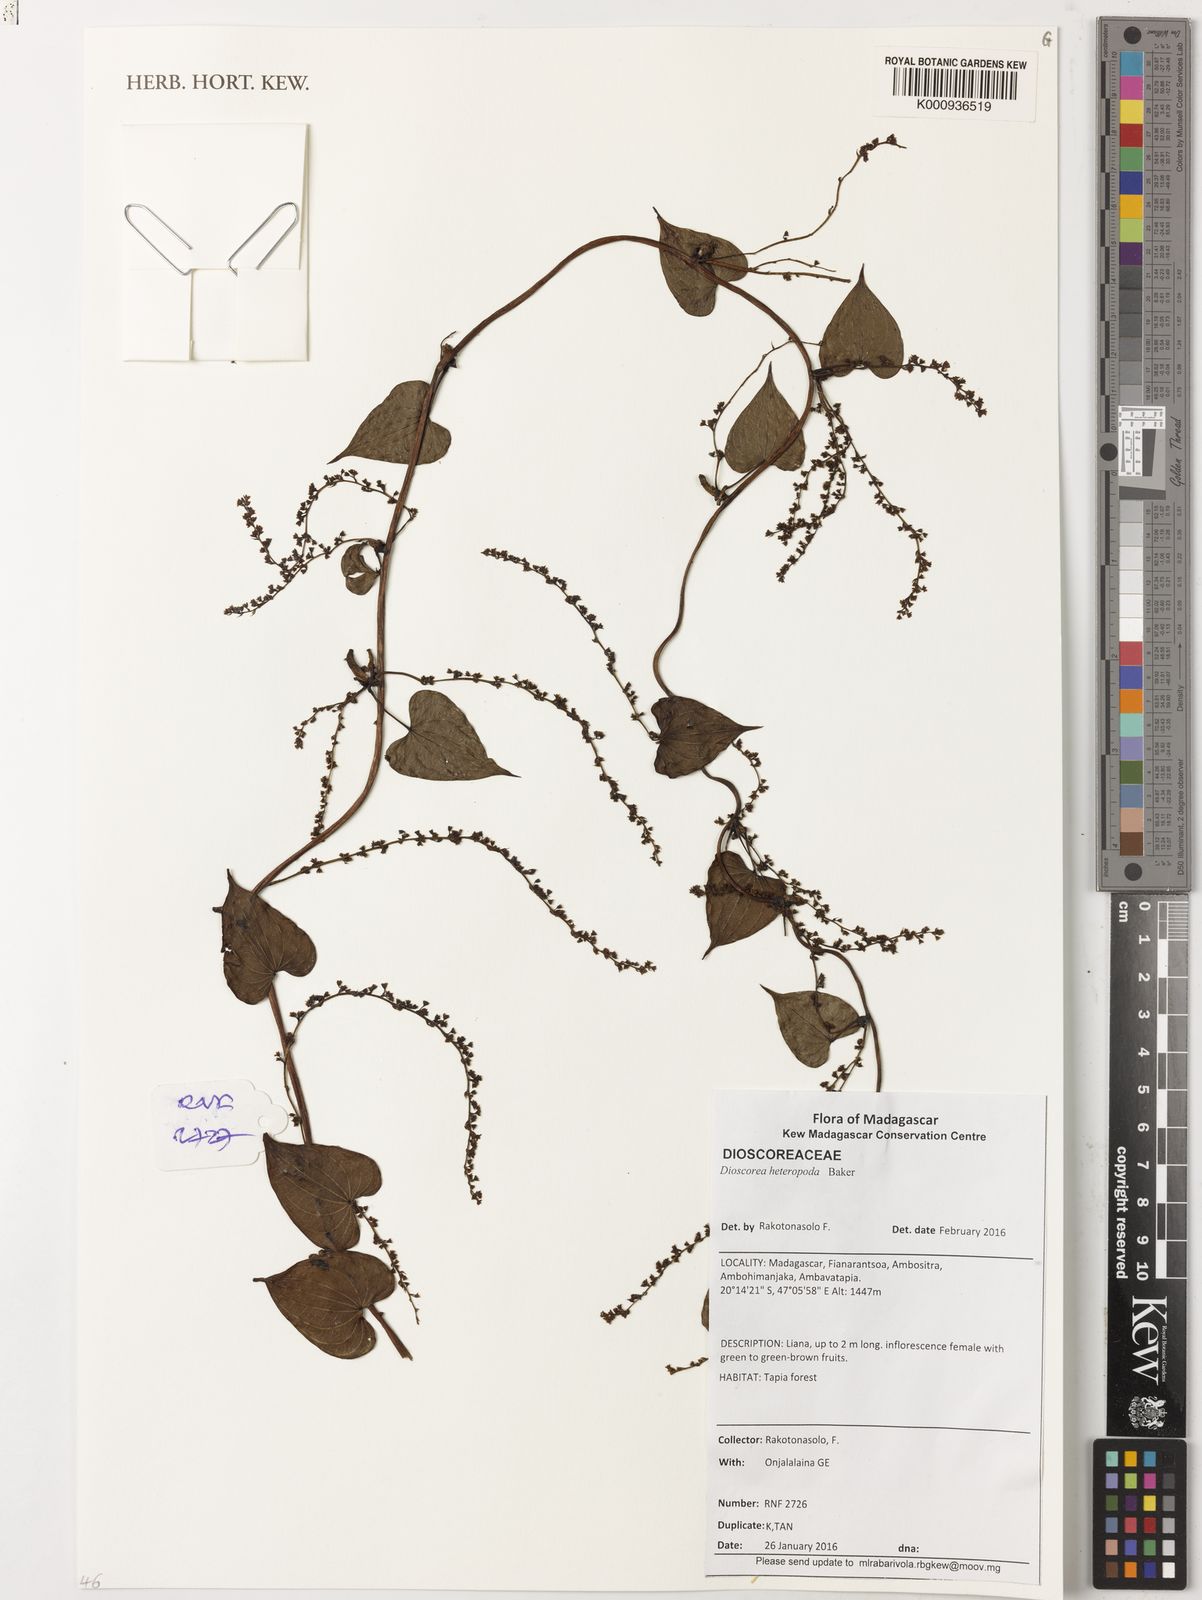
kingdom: Plantae
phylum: Tracheophyta
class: Liliopsida
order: Dioscoreales
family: Dioscoreaceae
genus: Dioscorea
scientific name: Dioscorea heteropoda
